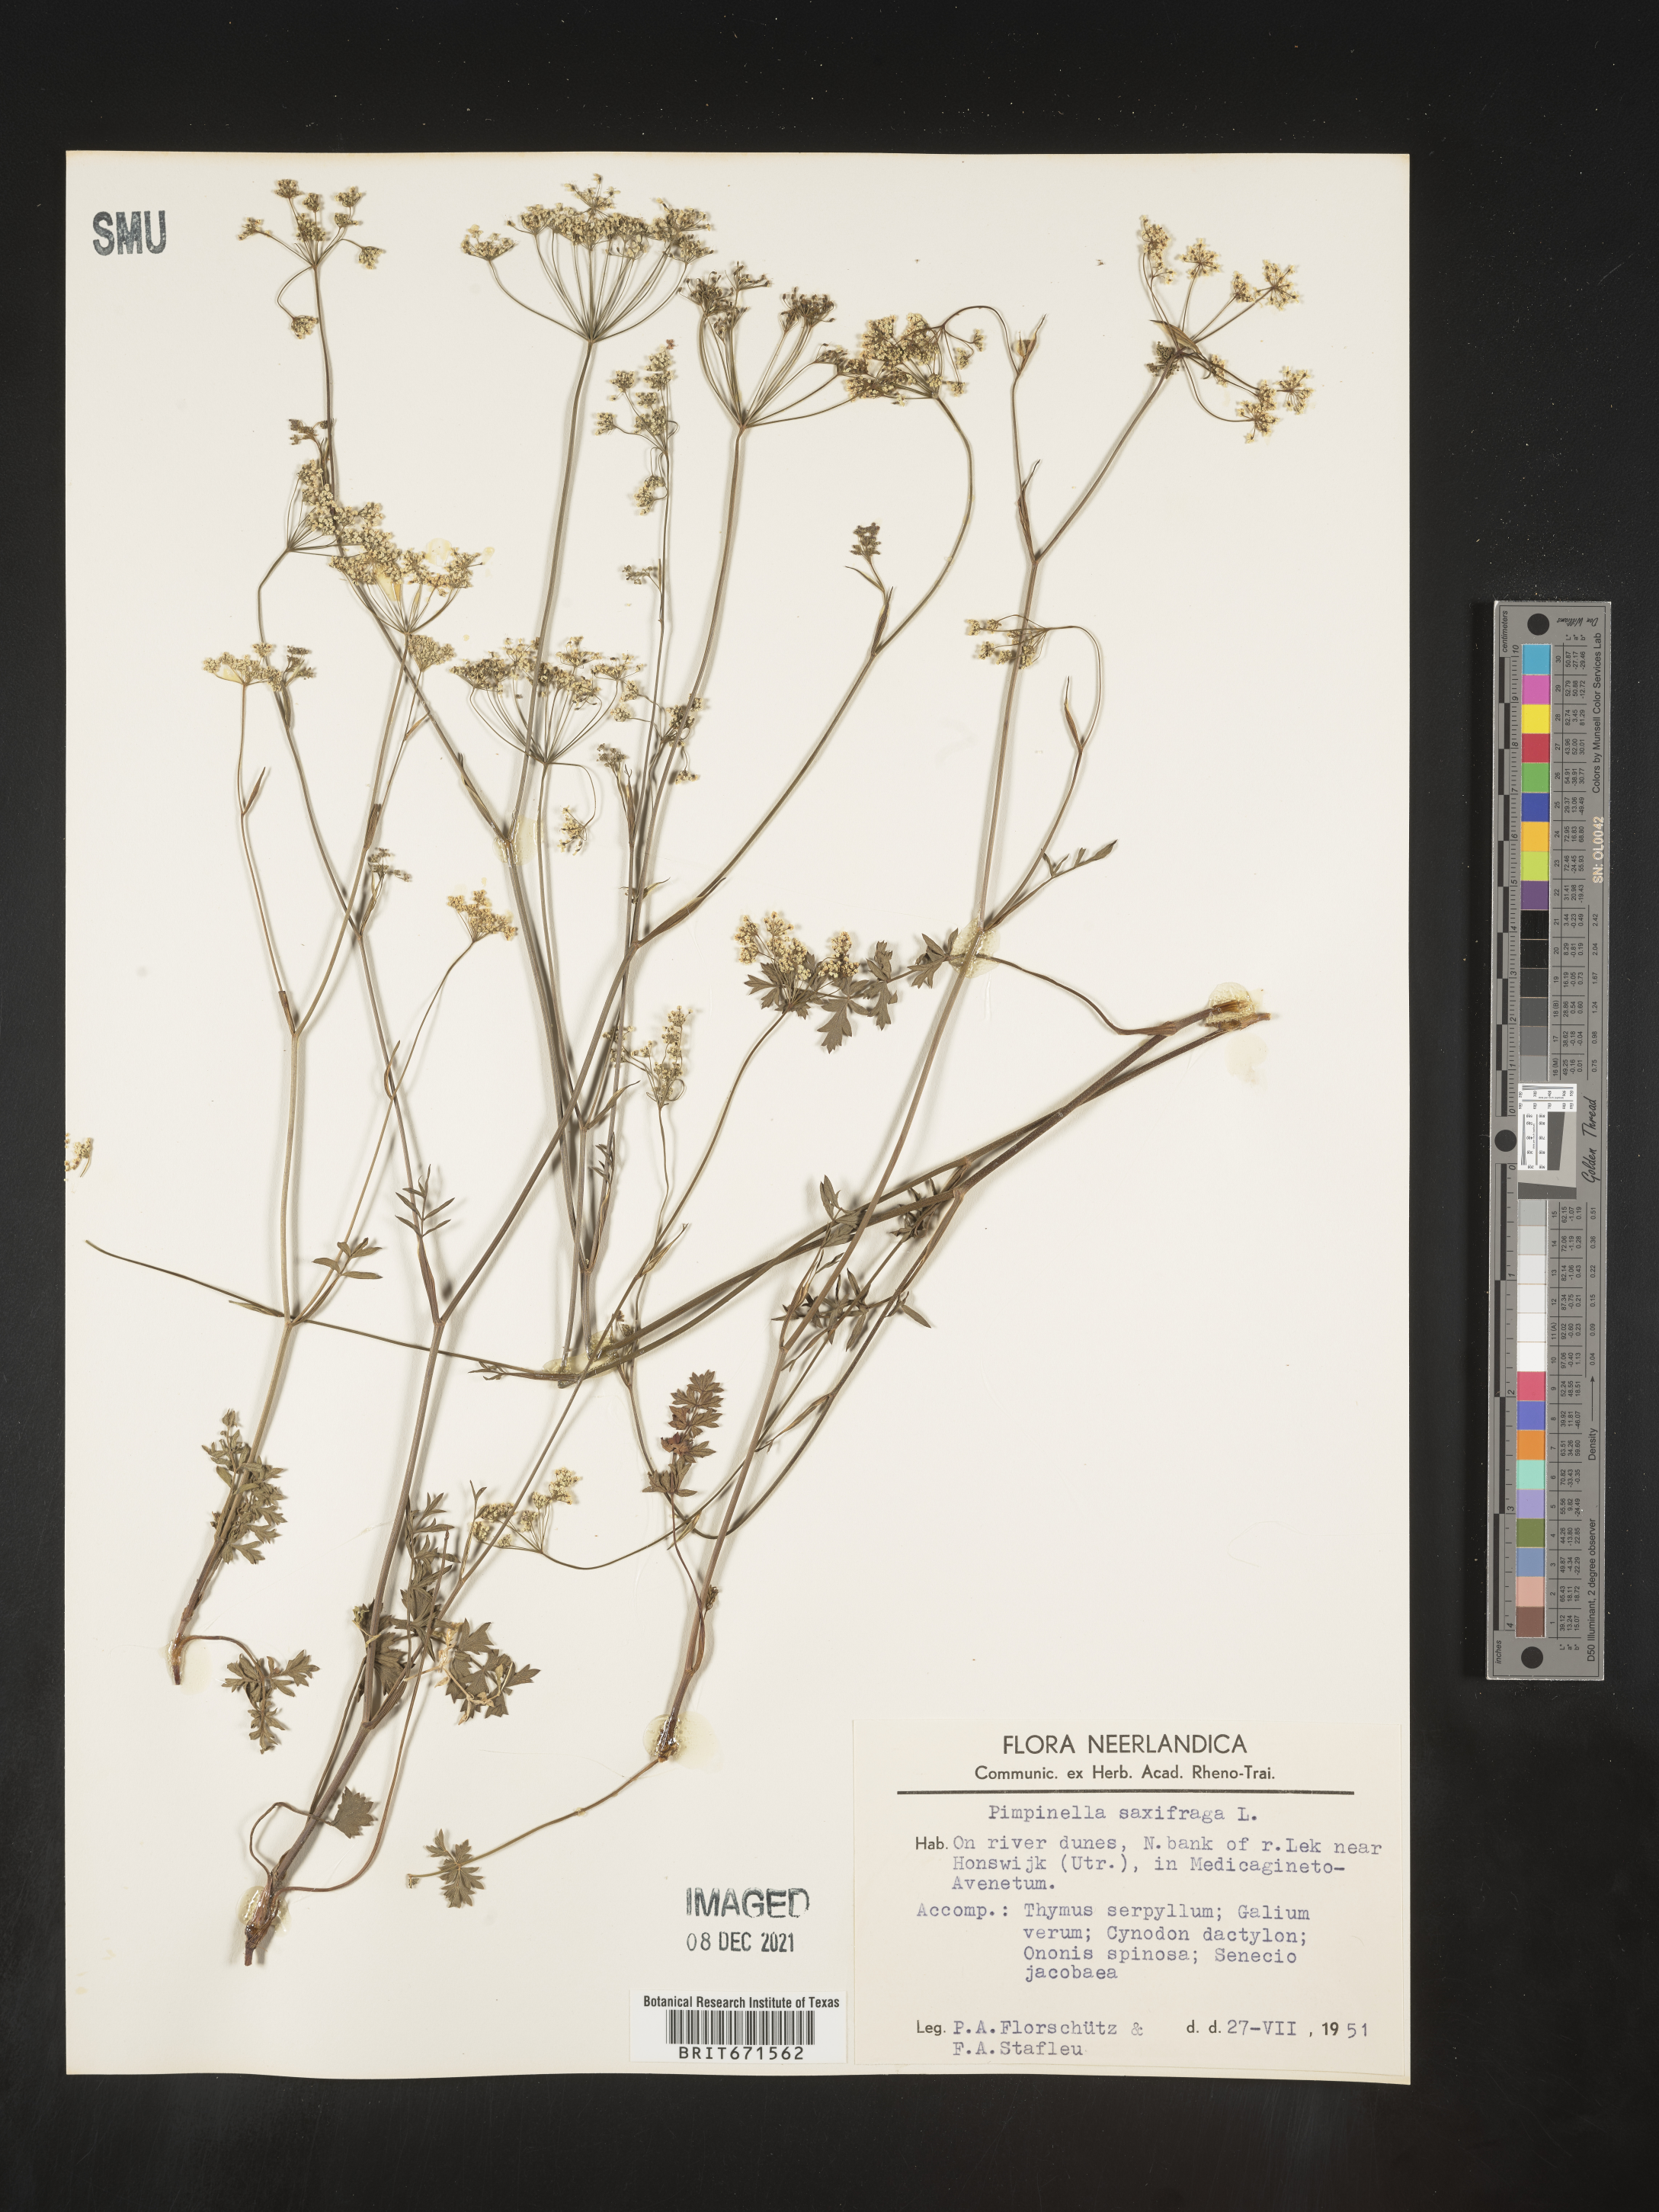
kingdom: Plantae
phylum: Tracheophyta
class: Magnoliopsida
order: Apiales
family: Apiaceae
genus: Pimpinella
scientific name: Pimpinella
